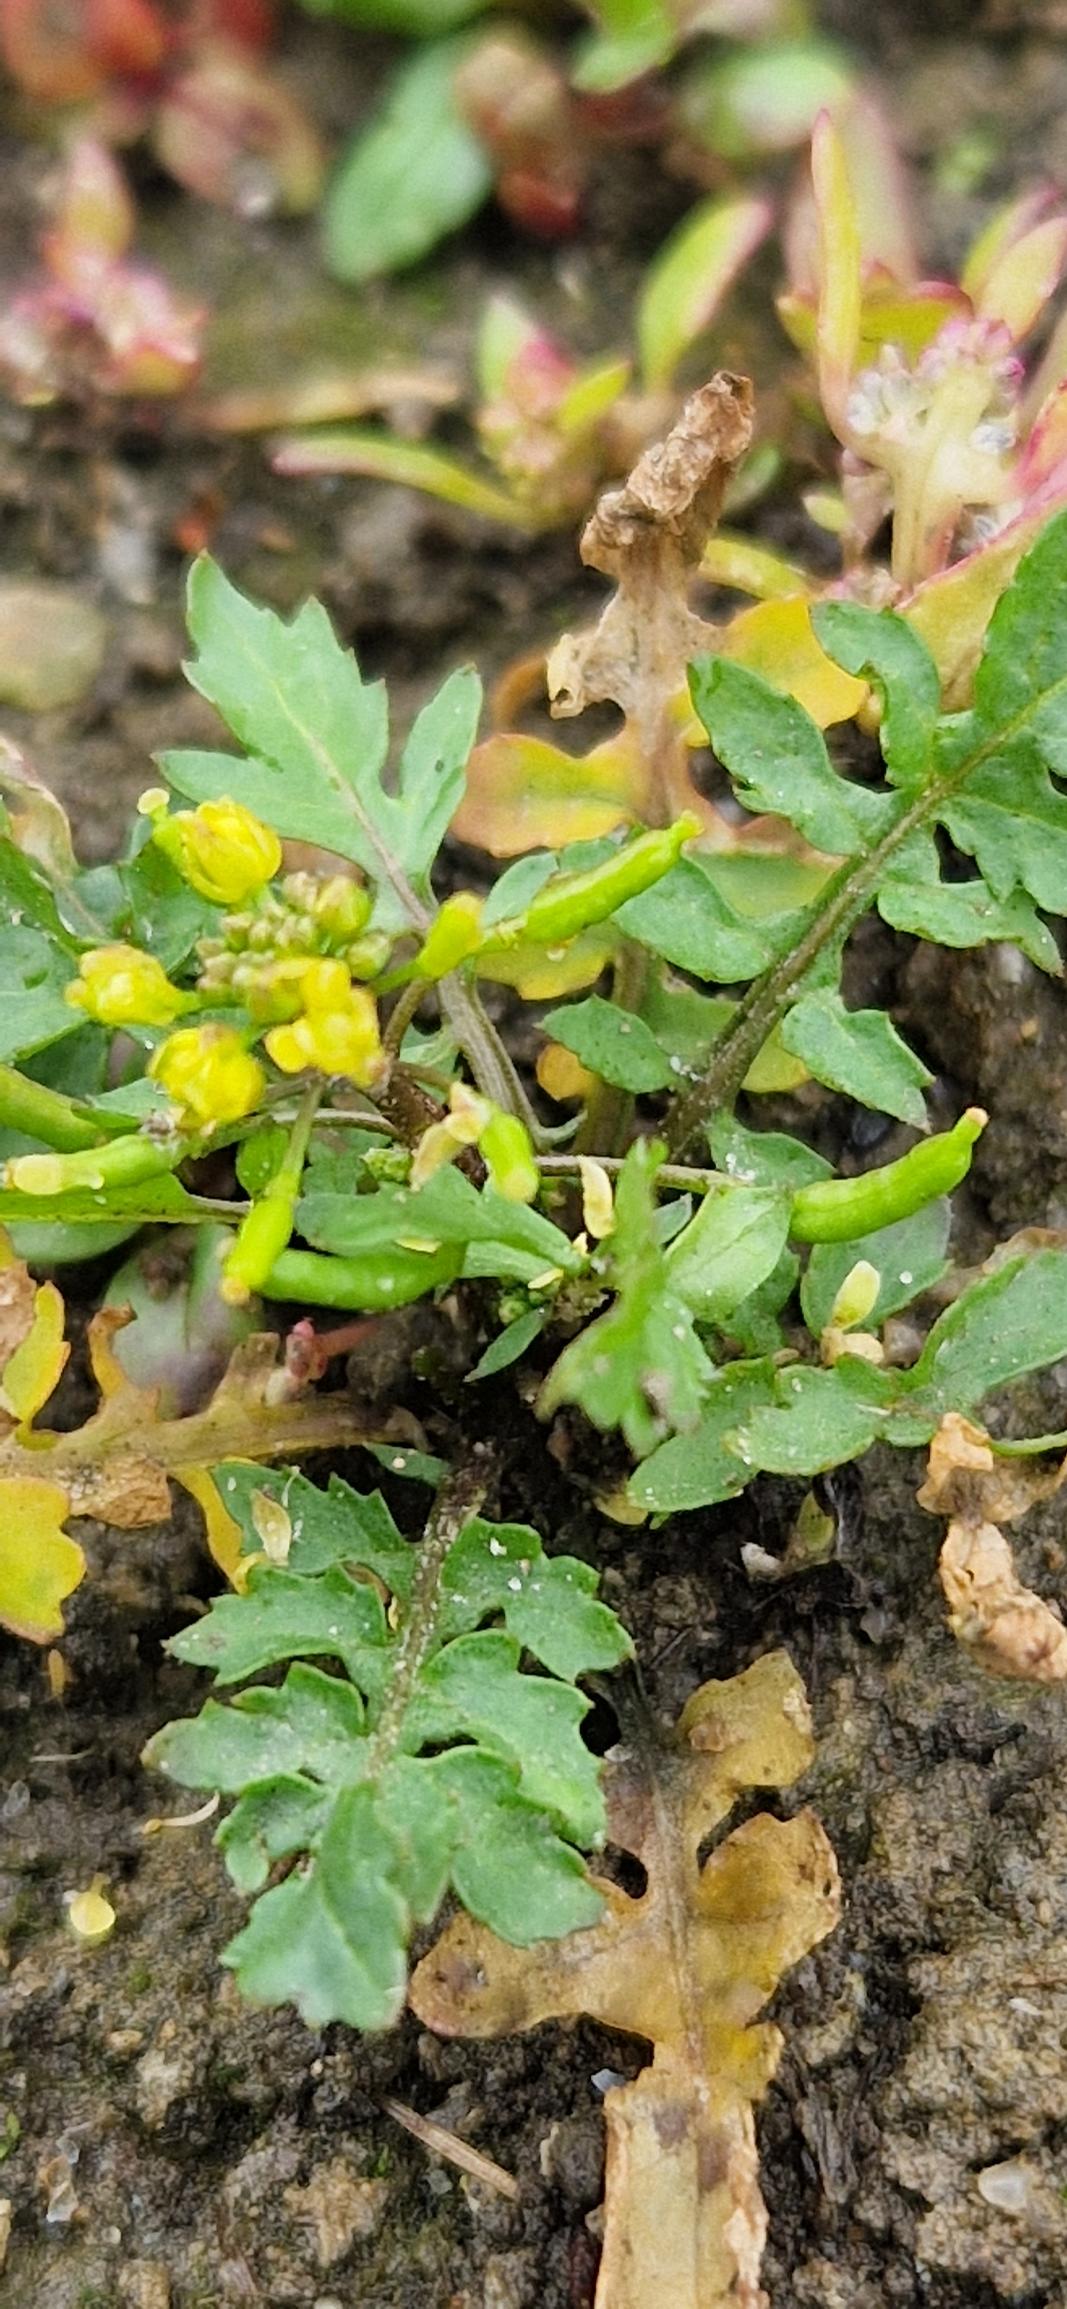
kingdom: Plantae
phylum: Tracheophyta
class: Magnoliopsida
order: Brassicales
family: Brassicaceae
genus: Rorippa
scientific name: Rorippa palustris
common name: Kær-guldkarse
